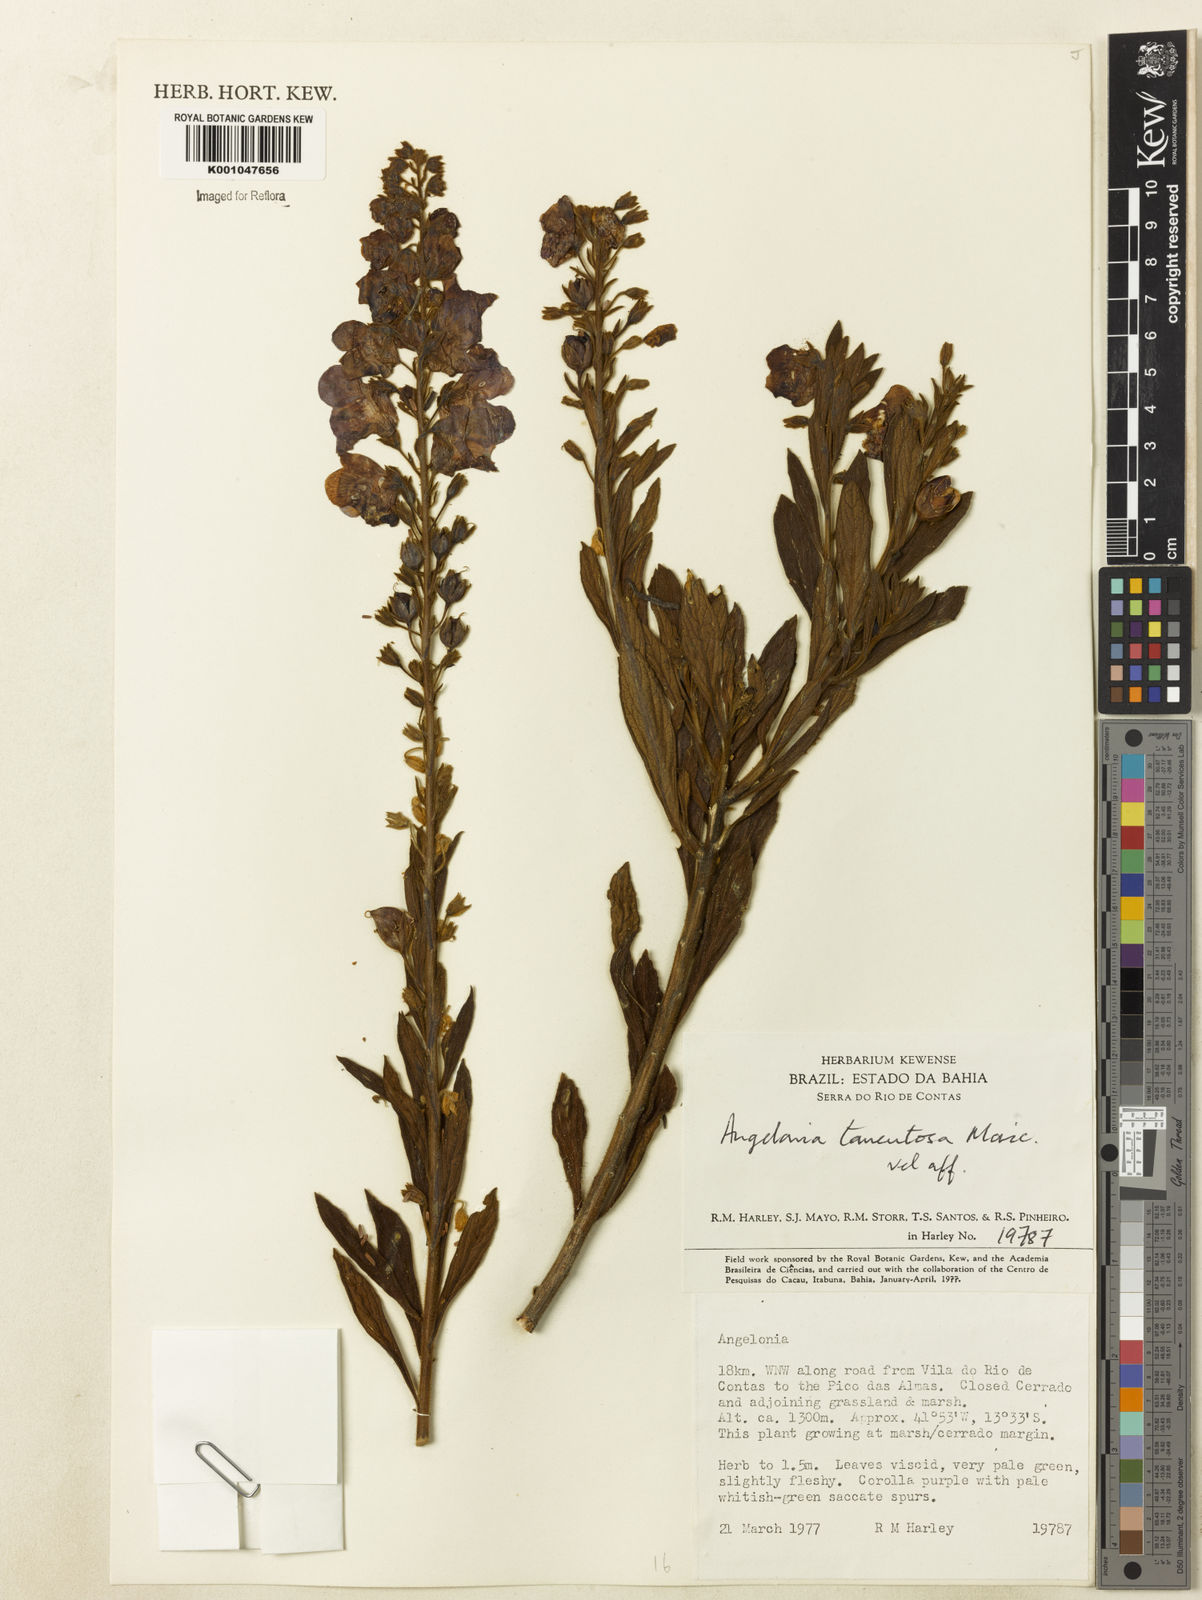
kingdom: Plantae
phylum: Tracheophyta
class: Magnoliopsida
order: Lamiales
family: Plantaginaceae
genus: Angelonia
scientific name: Angelonia tomentosa
